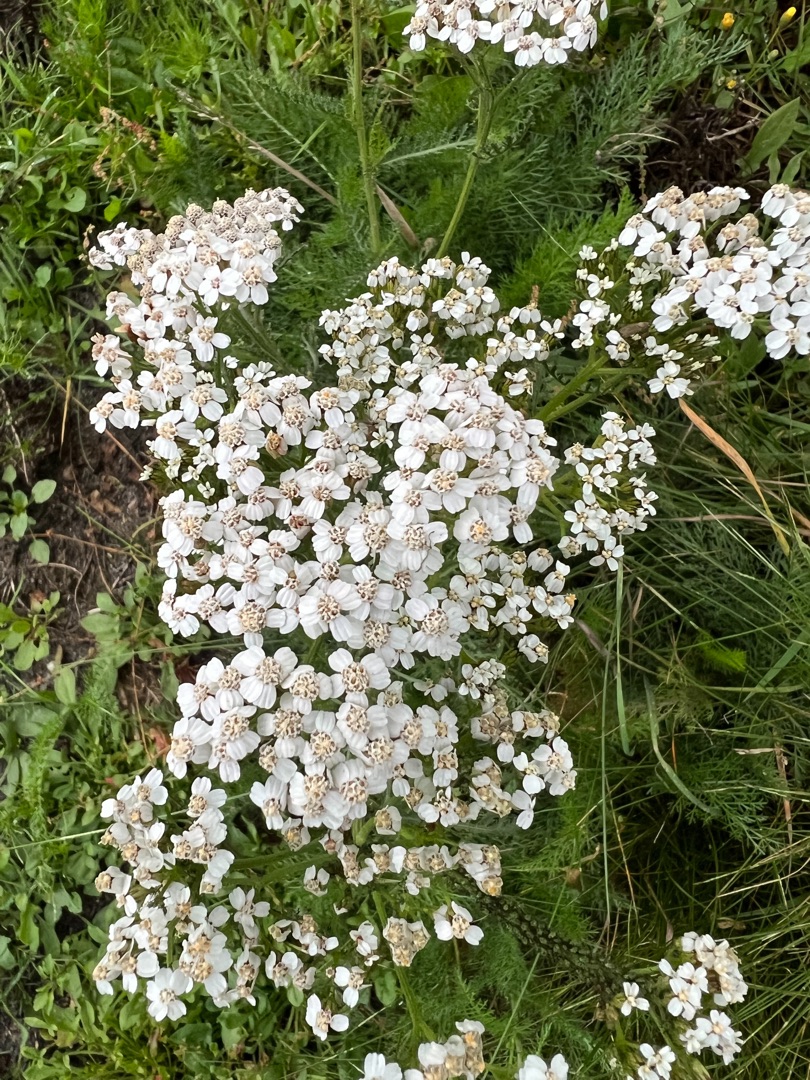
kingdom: Plantae
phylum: Tracheophyta
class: Magnoliopsida
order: Asterales
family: Asteraceae
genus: Achillea
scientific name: Achillea millefolium
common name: Almindelig røllike
